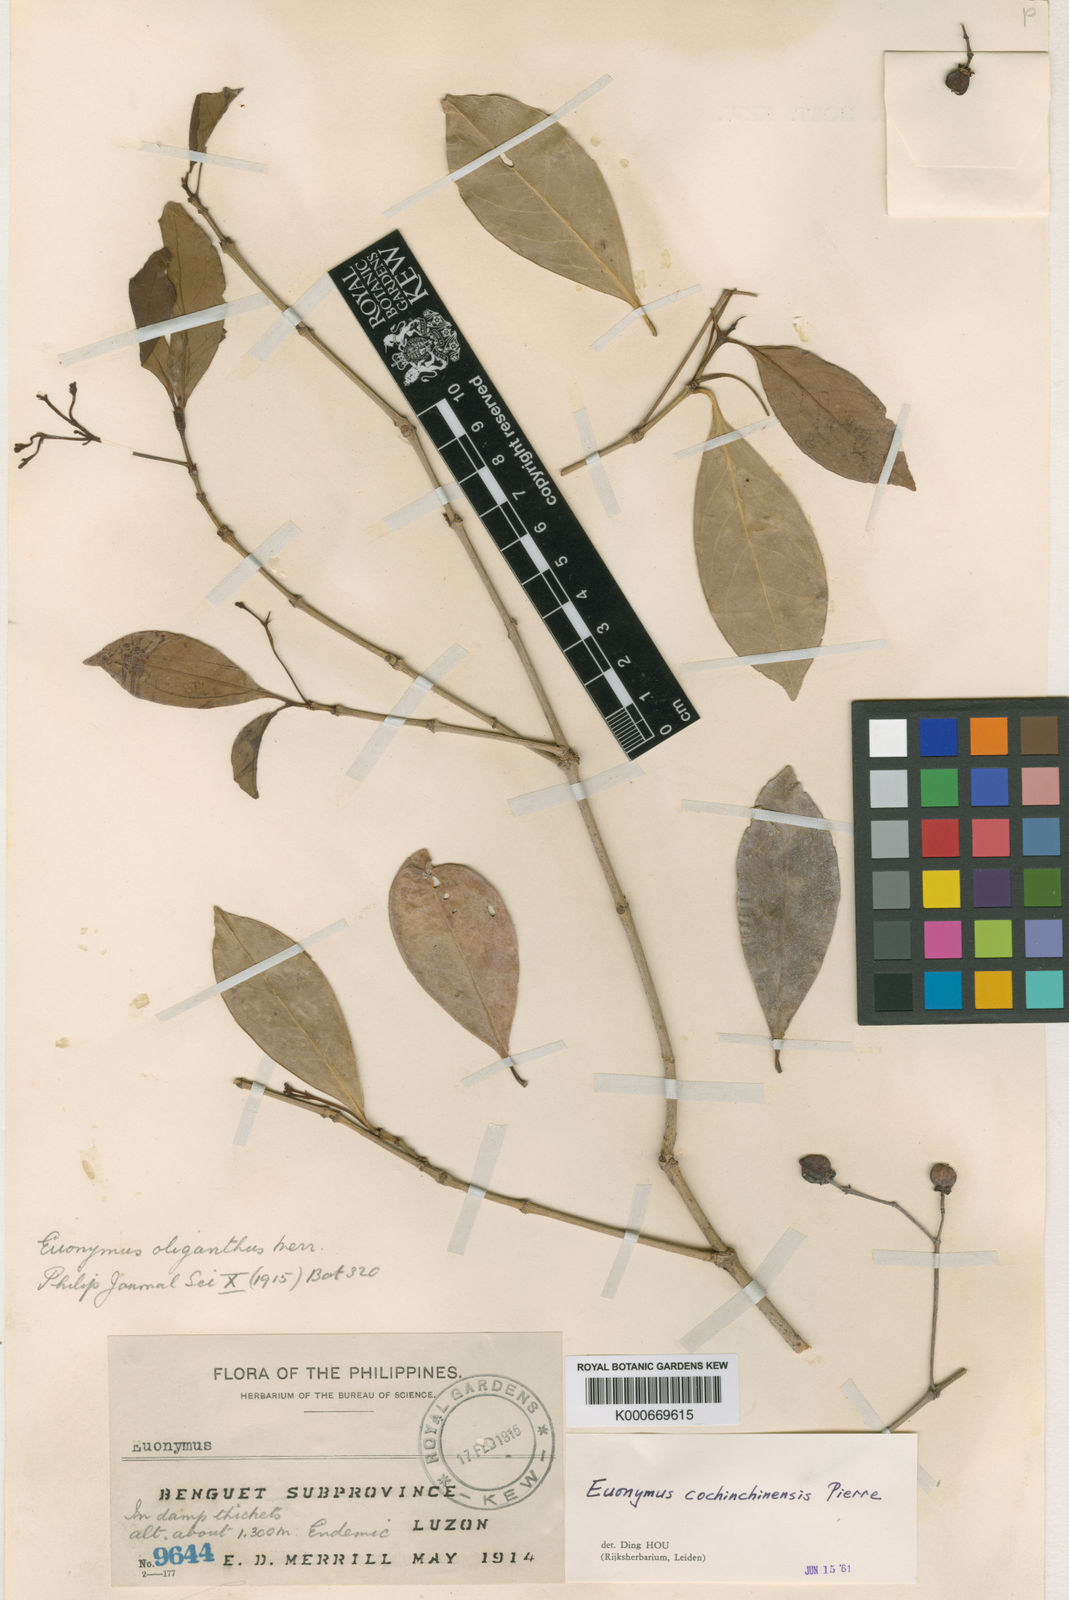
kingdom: Plantae
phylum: Tracheophyta
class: Magnoliopsida
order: Celastrales
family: Celastraceae
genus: Euonymus
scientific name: Euonymus cochinchinensis
